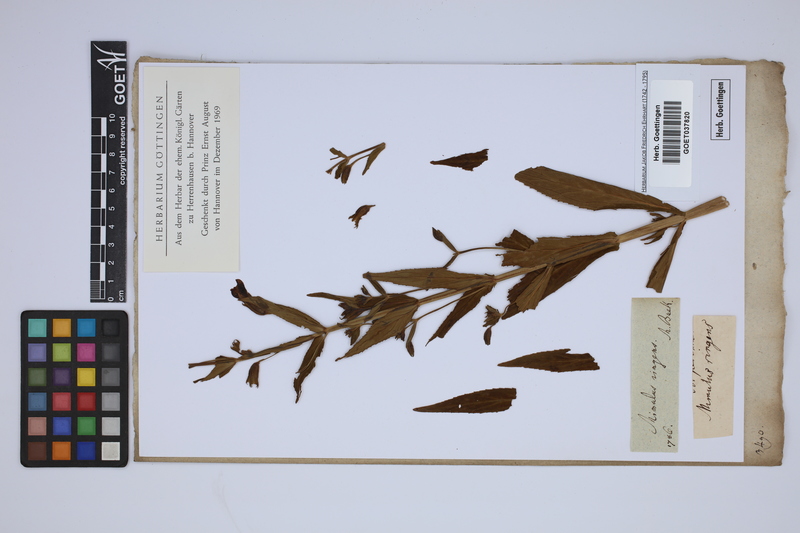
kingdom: Plantae
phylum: Tracheophyta
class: Magnoliopsida
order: Lamiales
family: Phrymaceae
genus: Mimulus
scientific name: Mimulus ringens
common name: Allegheny monkeyflower
